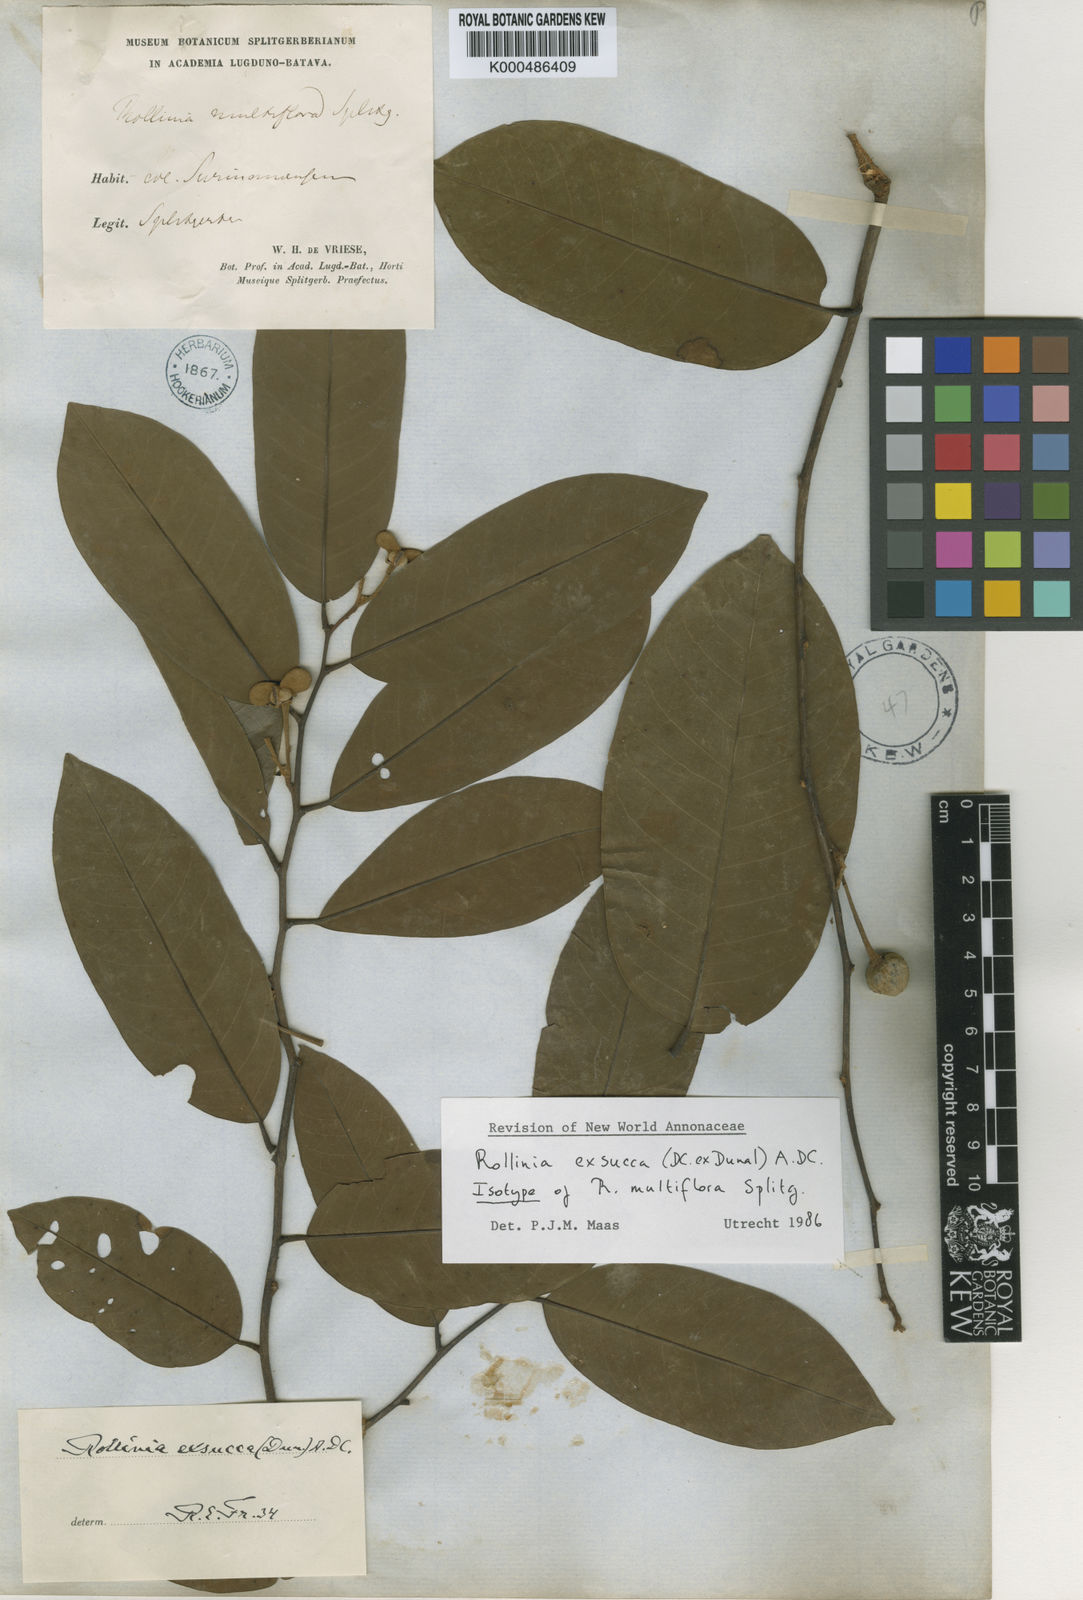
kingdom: Plantae
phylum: Tracheophyta
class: Magnoliopsida
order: Magnoliales
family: Annonaceae
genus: Annona
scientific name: Annona
